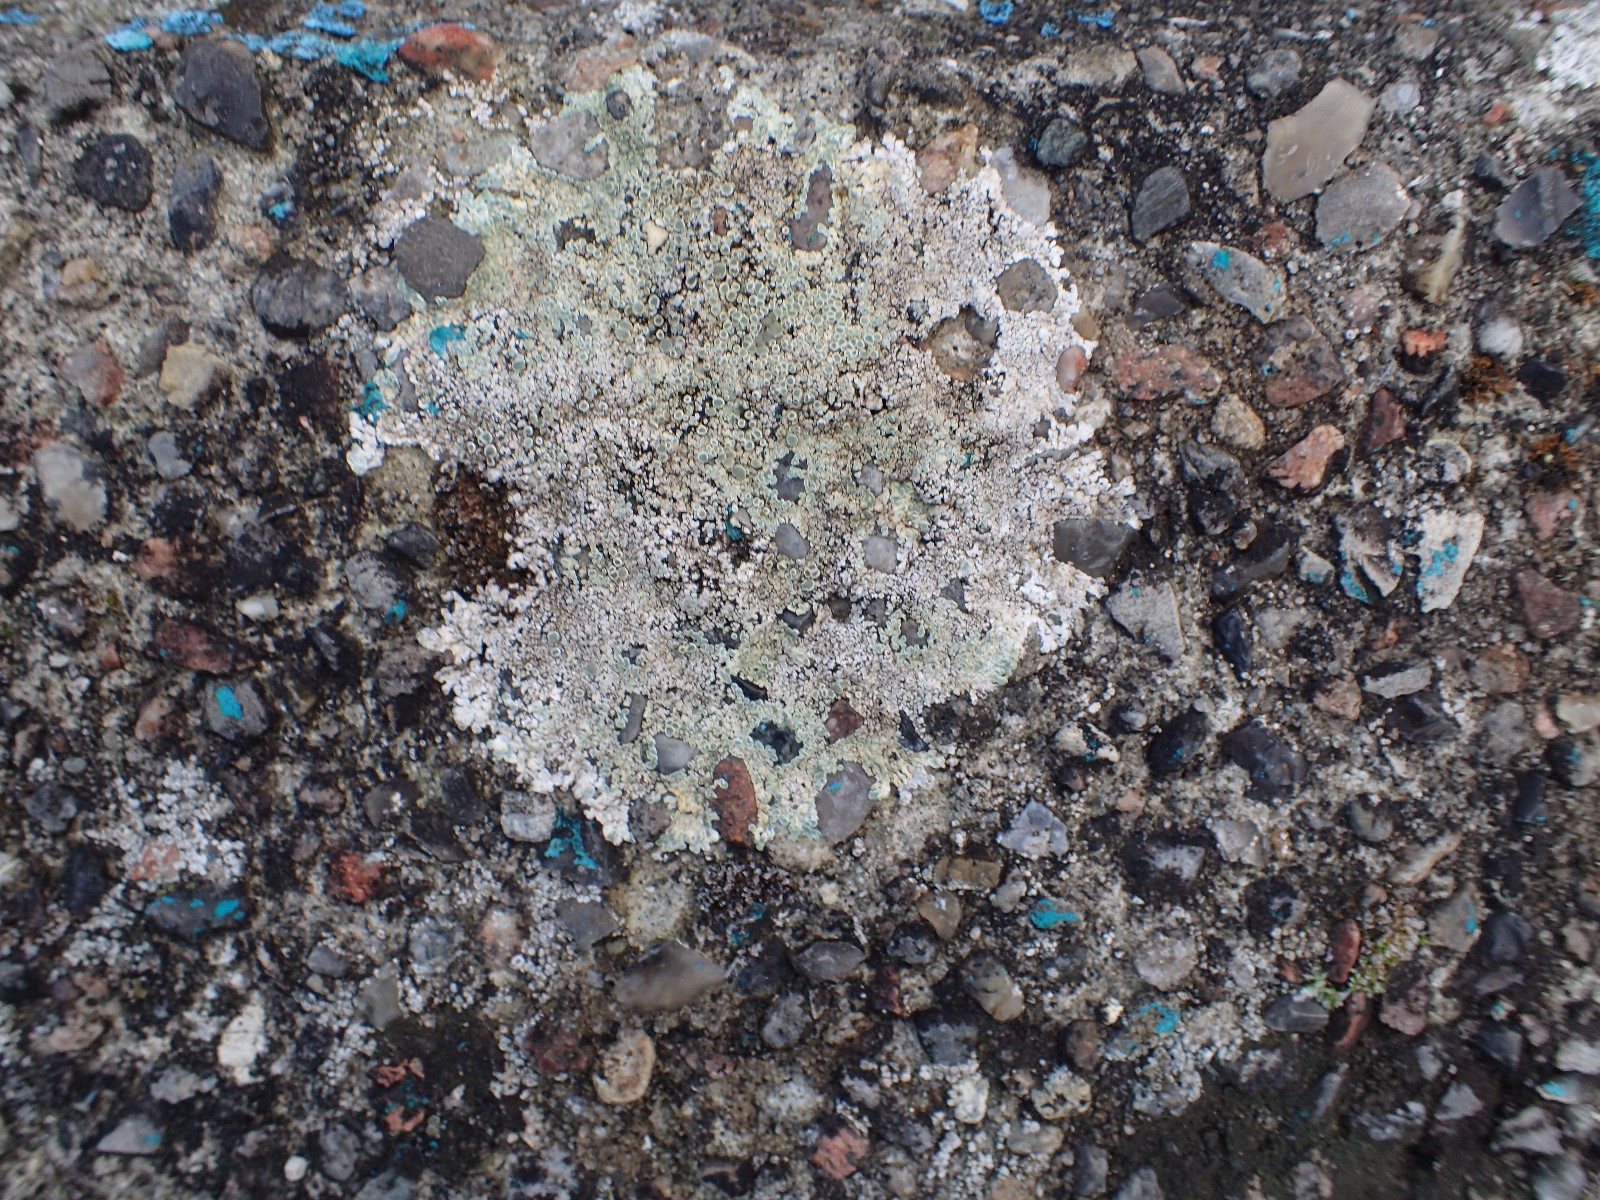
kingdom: Fungi
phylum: Ascomycota
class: Lecanoromycetes
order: Lecanorales
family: Lecanoraceae
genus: Protoparmeliopsis
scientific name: Protoparmeliopsis muralis
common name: randfliget kantskivelav
